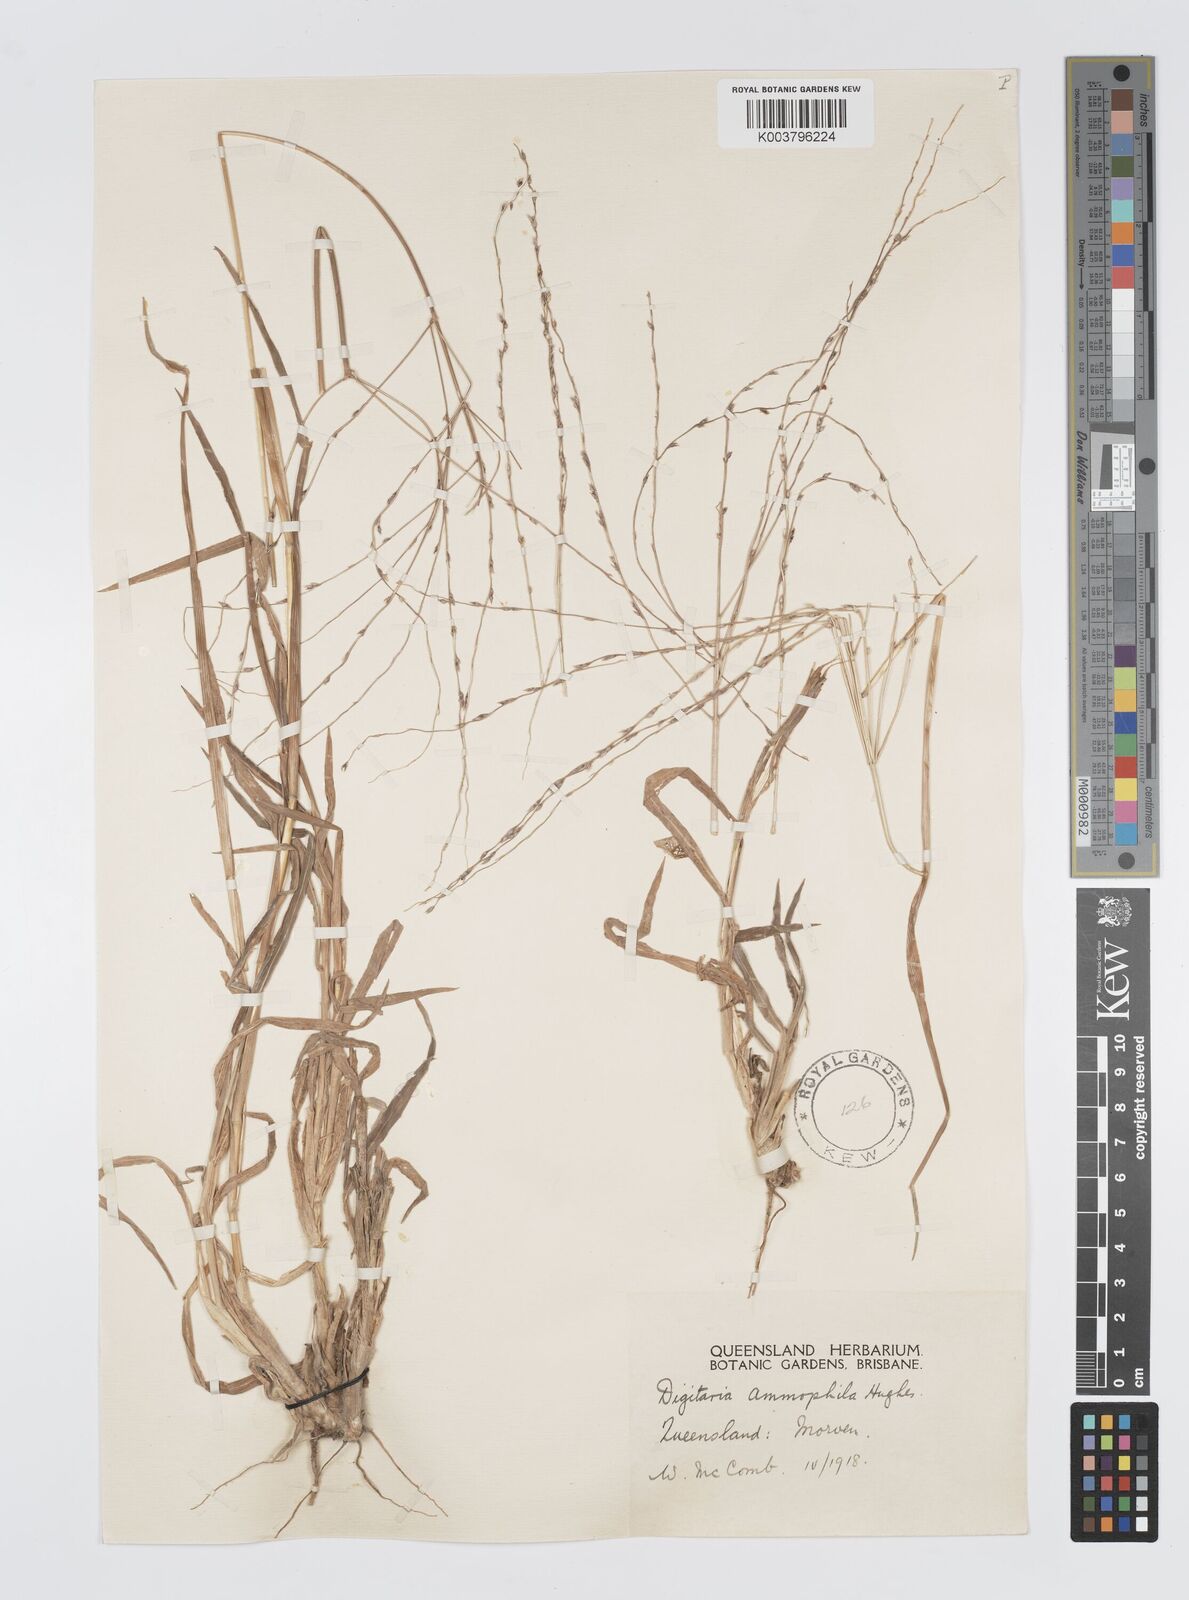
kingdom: Plantae
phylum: Tracheophyta
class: Liliopsida
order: Poales
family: Poaceae
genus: Digitaria
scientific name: Digitaria ammophila
